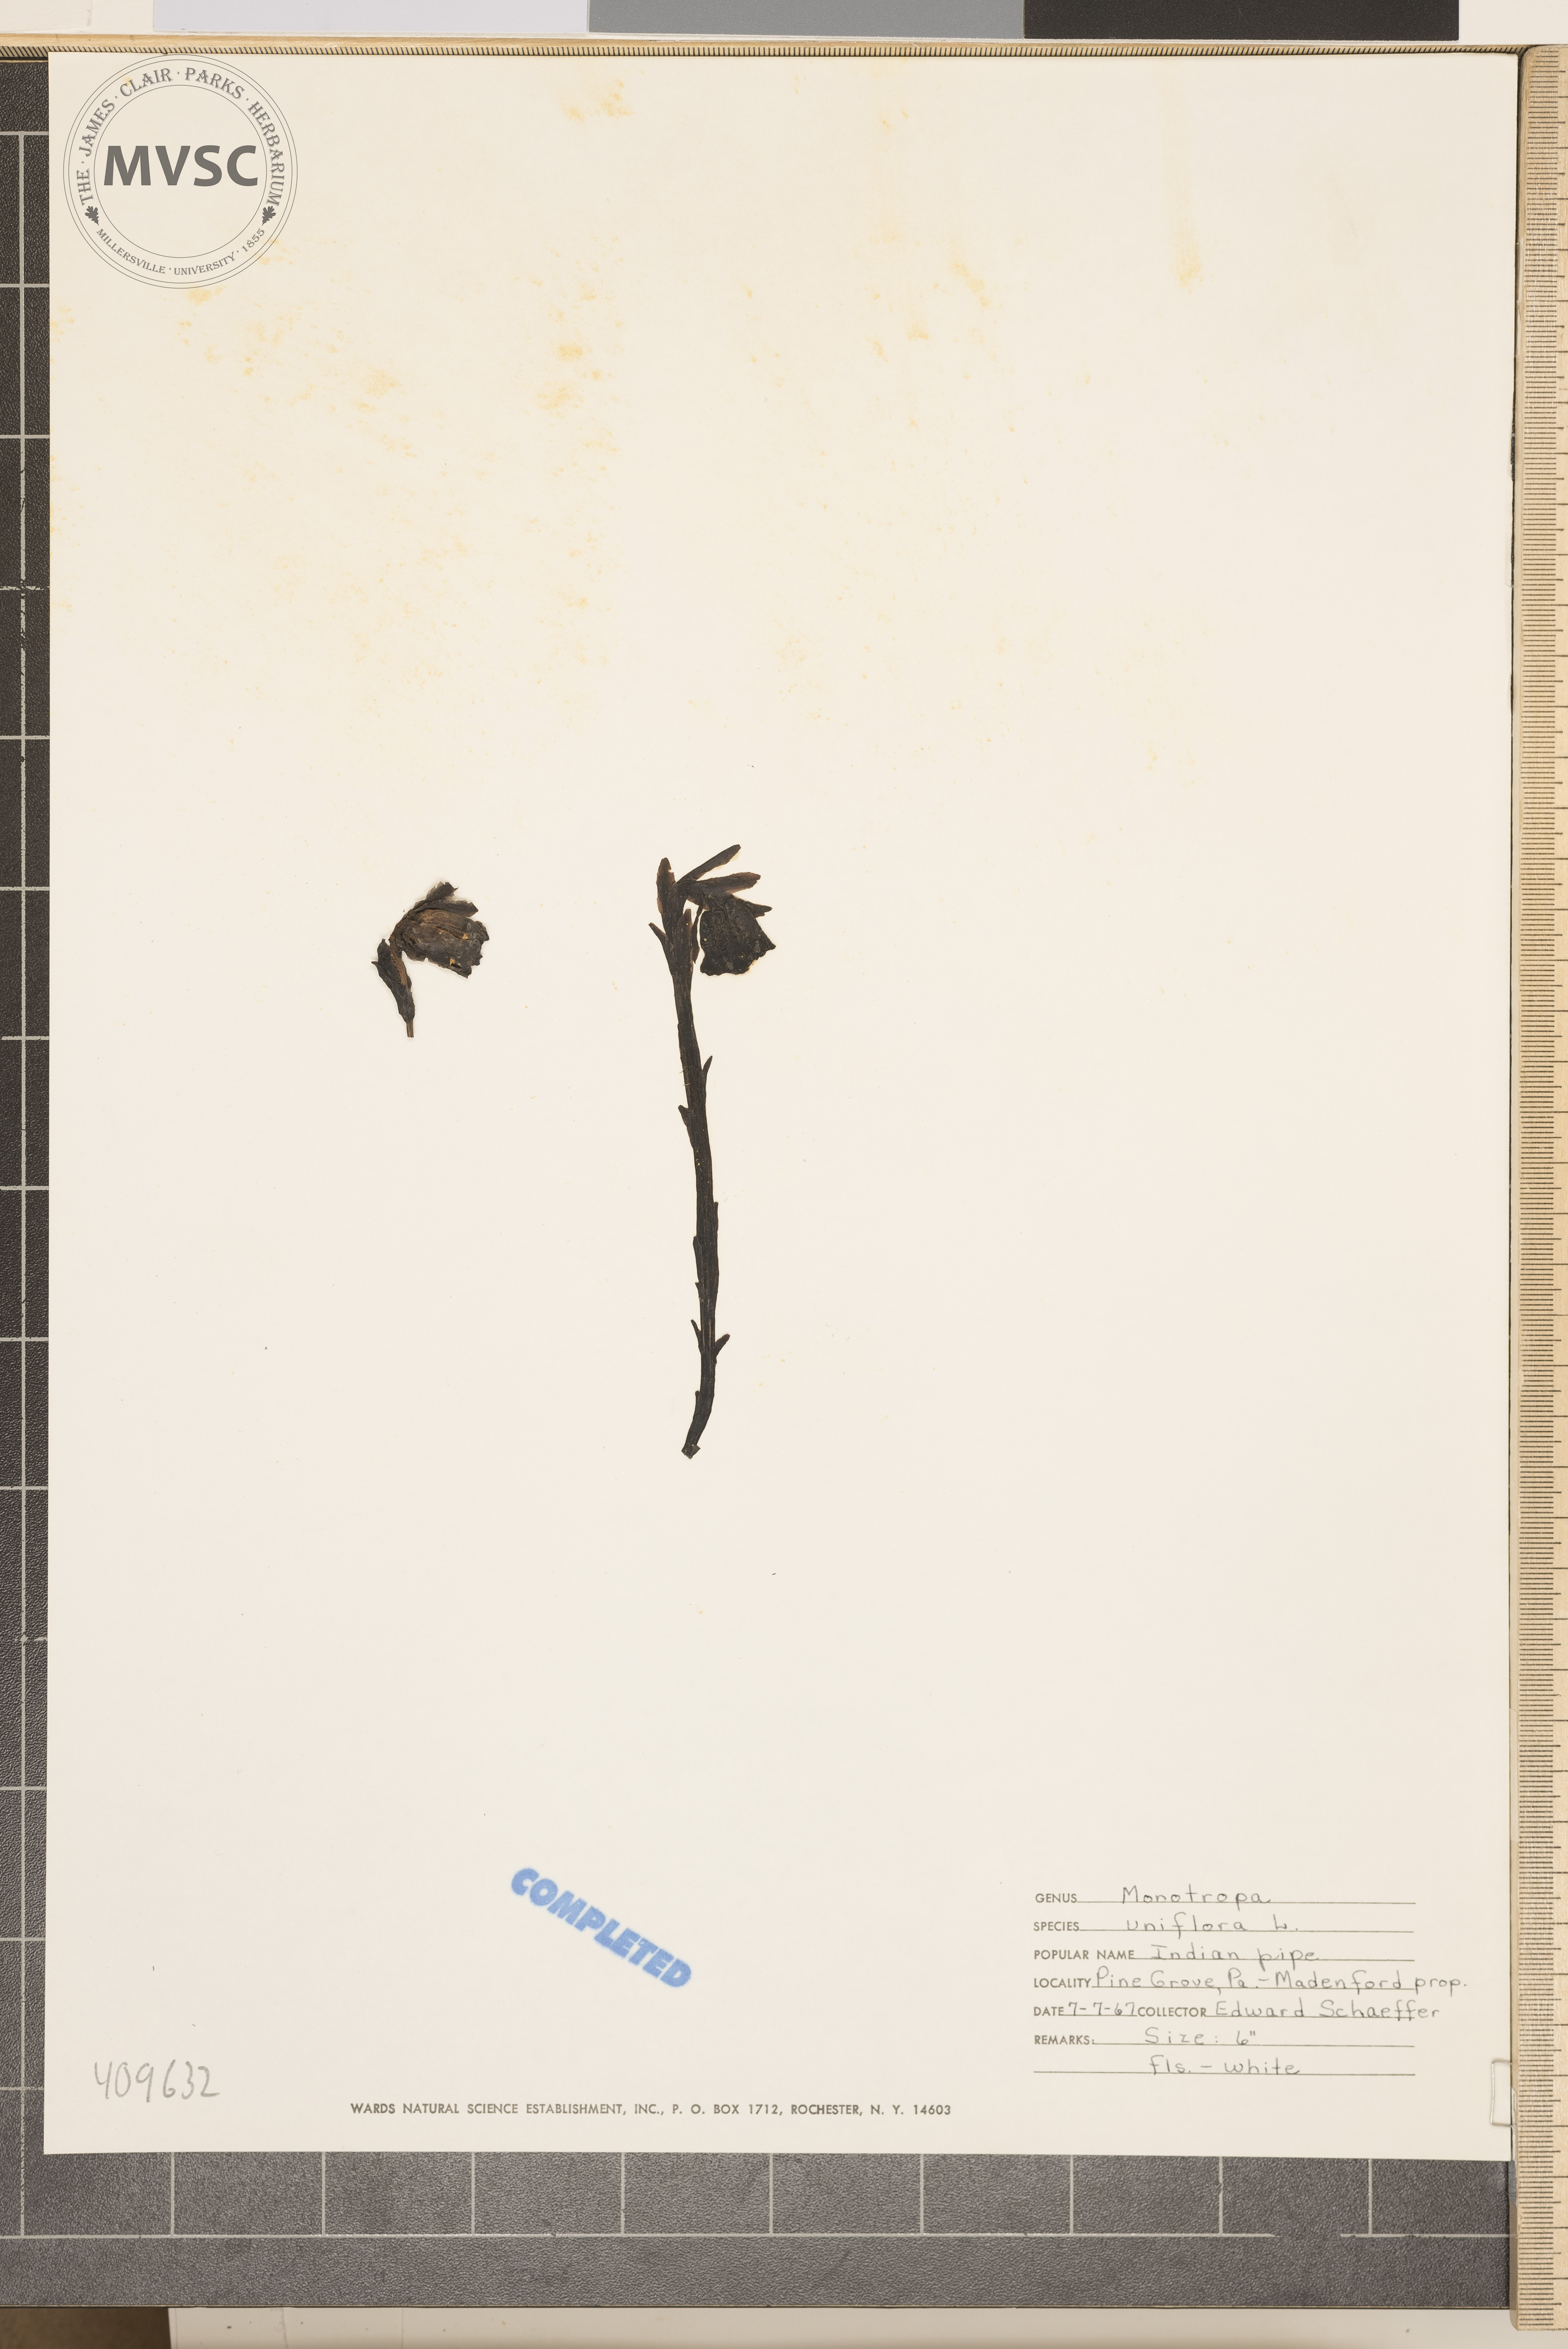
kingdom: Plantae
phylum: Tracheophyta
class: Magnoliopsida
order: Ericales
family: Ericaceae
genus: Monotropa
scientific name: Monotropa uniflora
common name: Convulsion root
